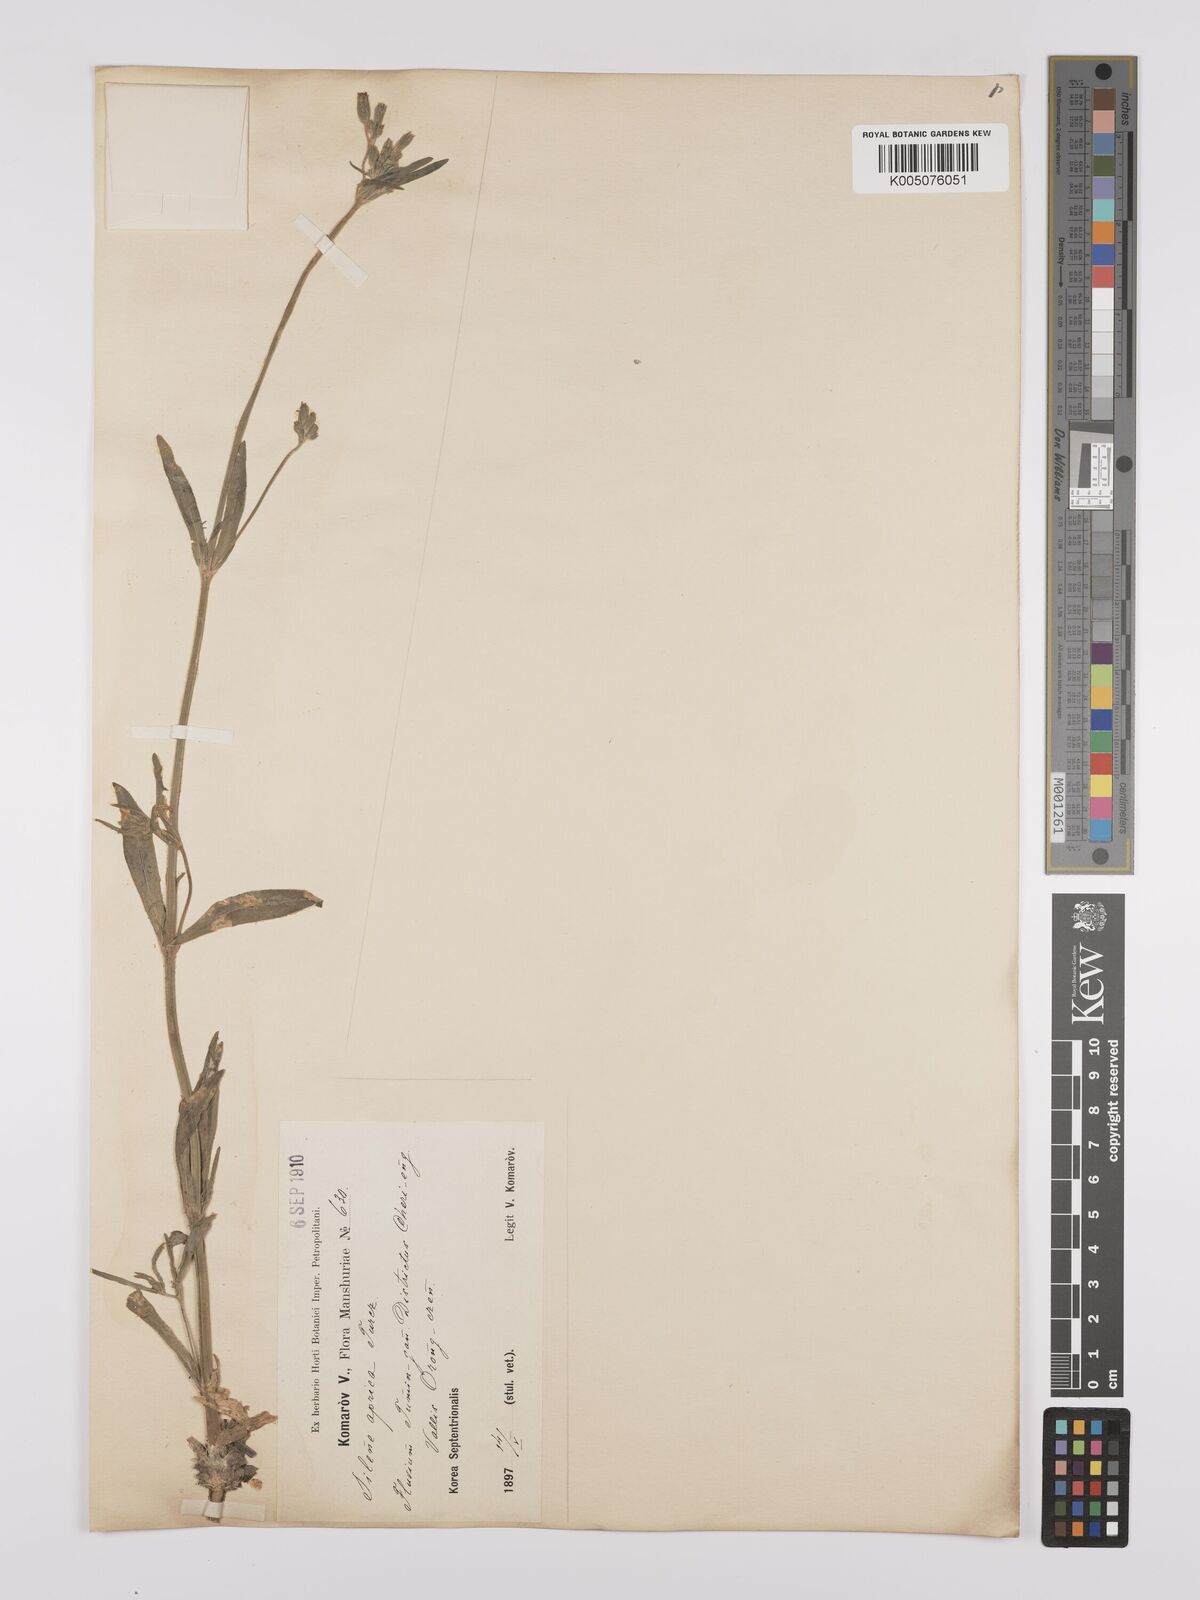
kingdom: Plantae
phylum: Tracheophyta
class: Magnoliopsida
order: Caryophyllales
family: Caryophyllaceae
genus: Silene
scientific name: Silene aprica
